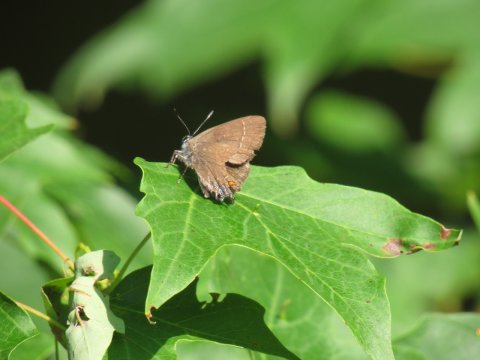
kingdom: Animalia
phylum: Arthropoda
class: Insecta
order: Lepidoptera
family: Lycaenidae
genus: Satyrium
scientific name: Satyrium calanus
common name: Banded Hairstreak
